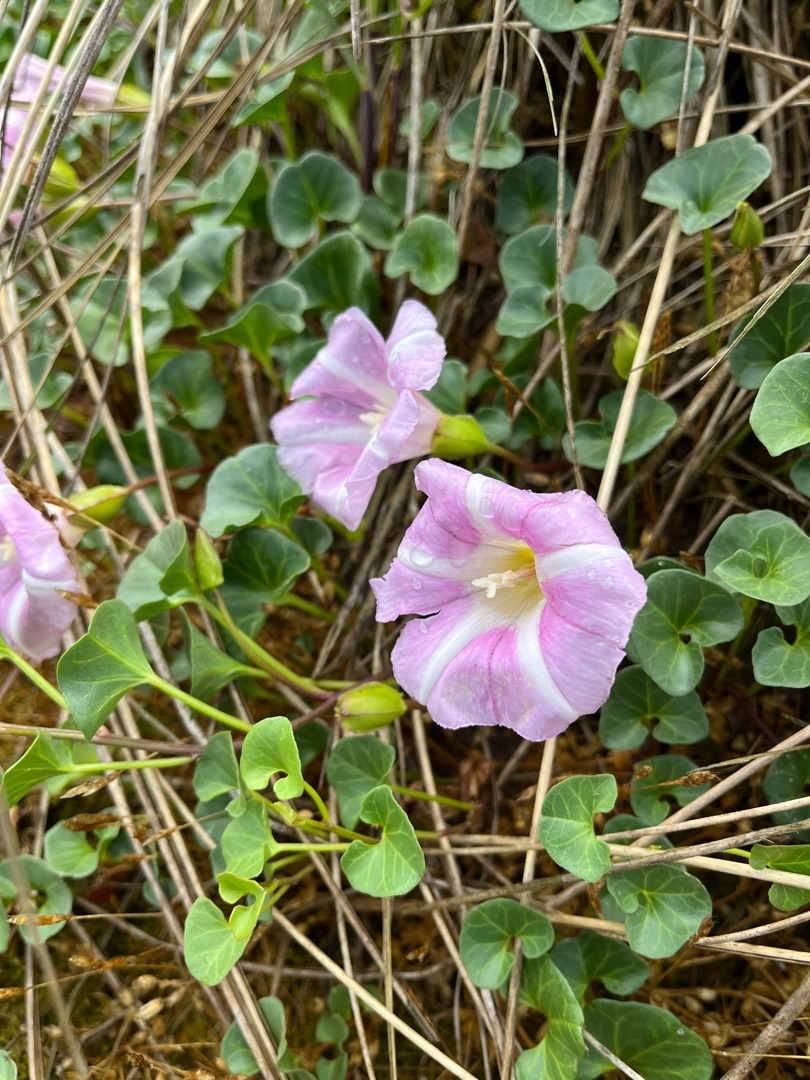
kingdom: Plantae
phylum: Tracheophyta
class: Magnoliopsida
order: Solanales
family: Convolvulaceae
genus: Calystegia
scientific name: Calystegia soldanella
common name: Strand-snerle
